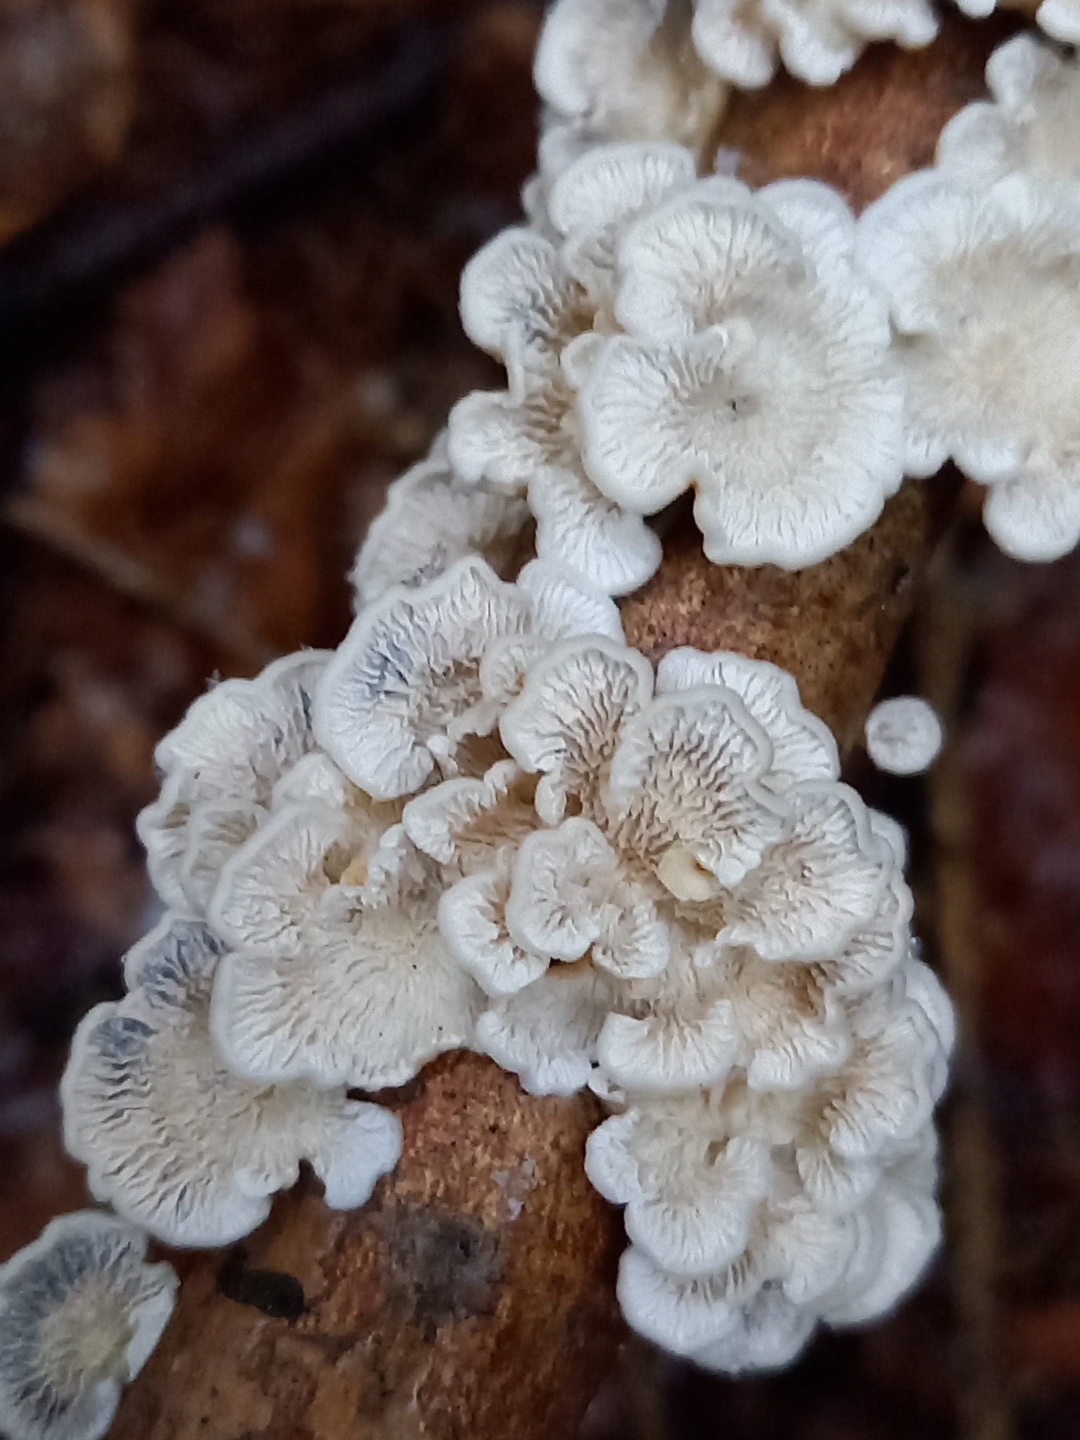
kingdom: Fungi
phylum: Basidiomycota
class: Agaricomycetes
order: Amylocorticiales
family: Amylocorticiaceae
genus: Plicaturopsis
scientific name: Plicaturopsis crispa
